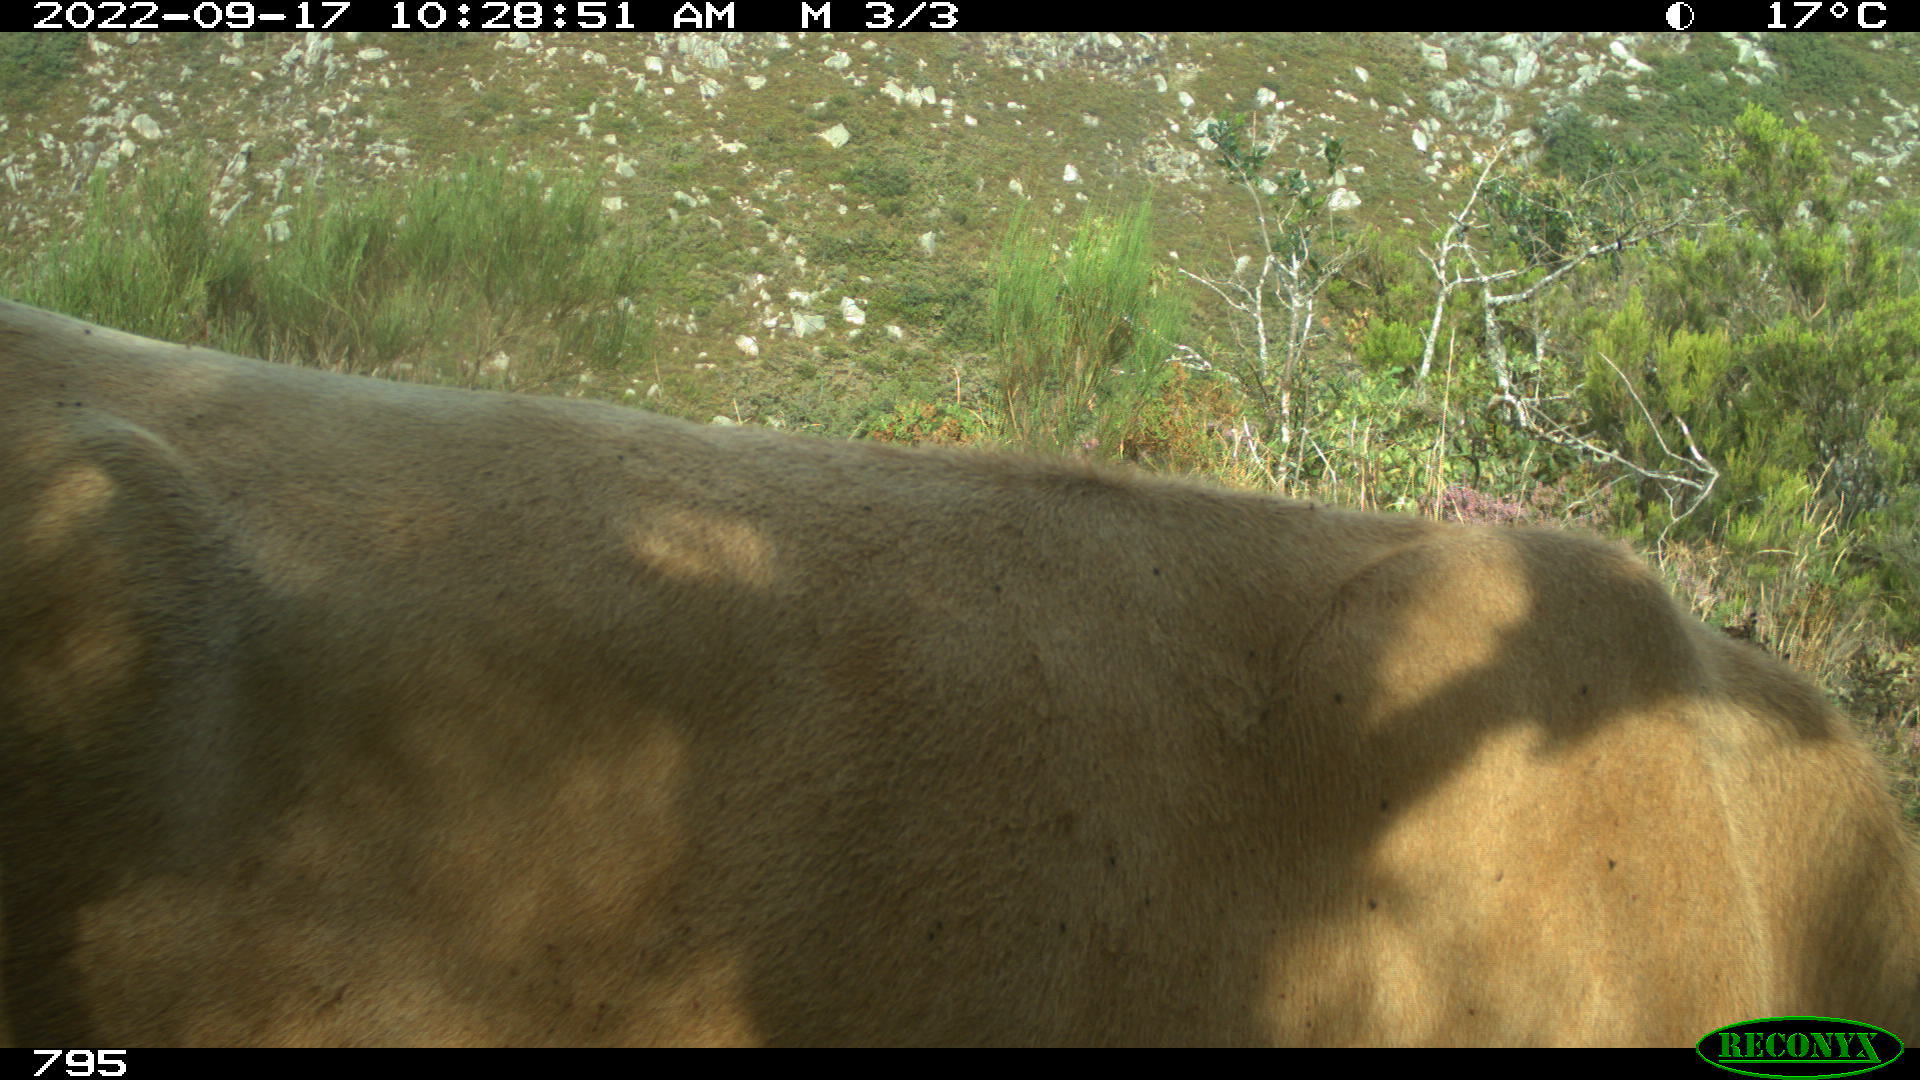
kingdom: Animalia
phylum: Chordata
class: Mammalia
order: Artiodactyla
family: Bovidae
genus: Bos
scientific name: Bos taurus
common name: Domesticated cattle
